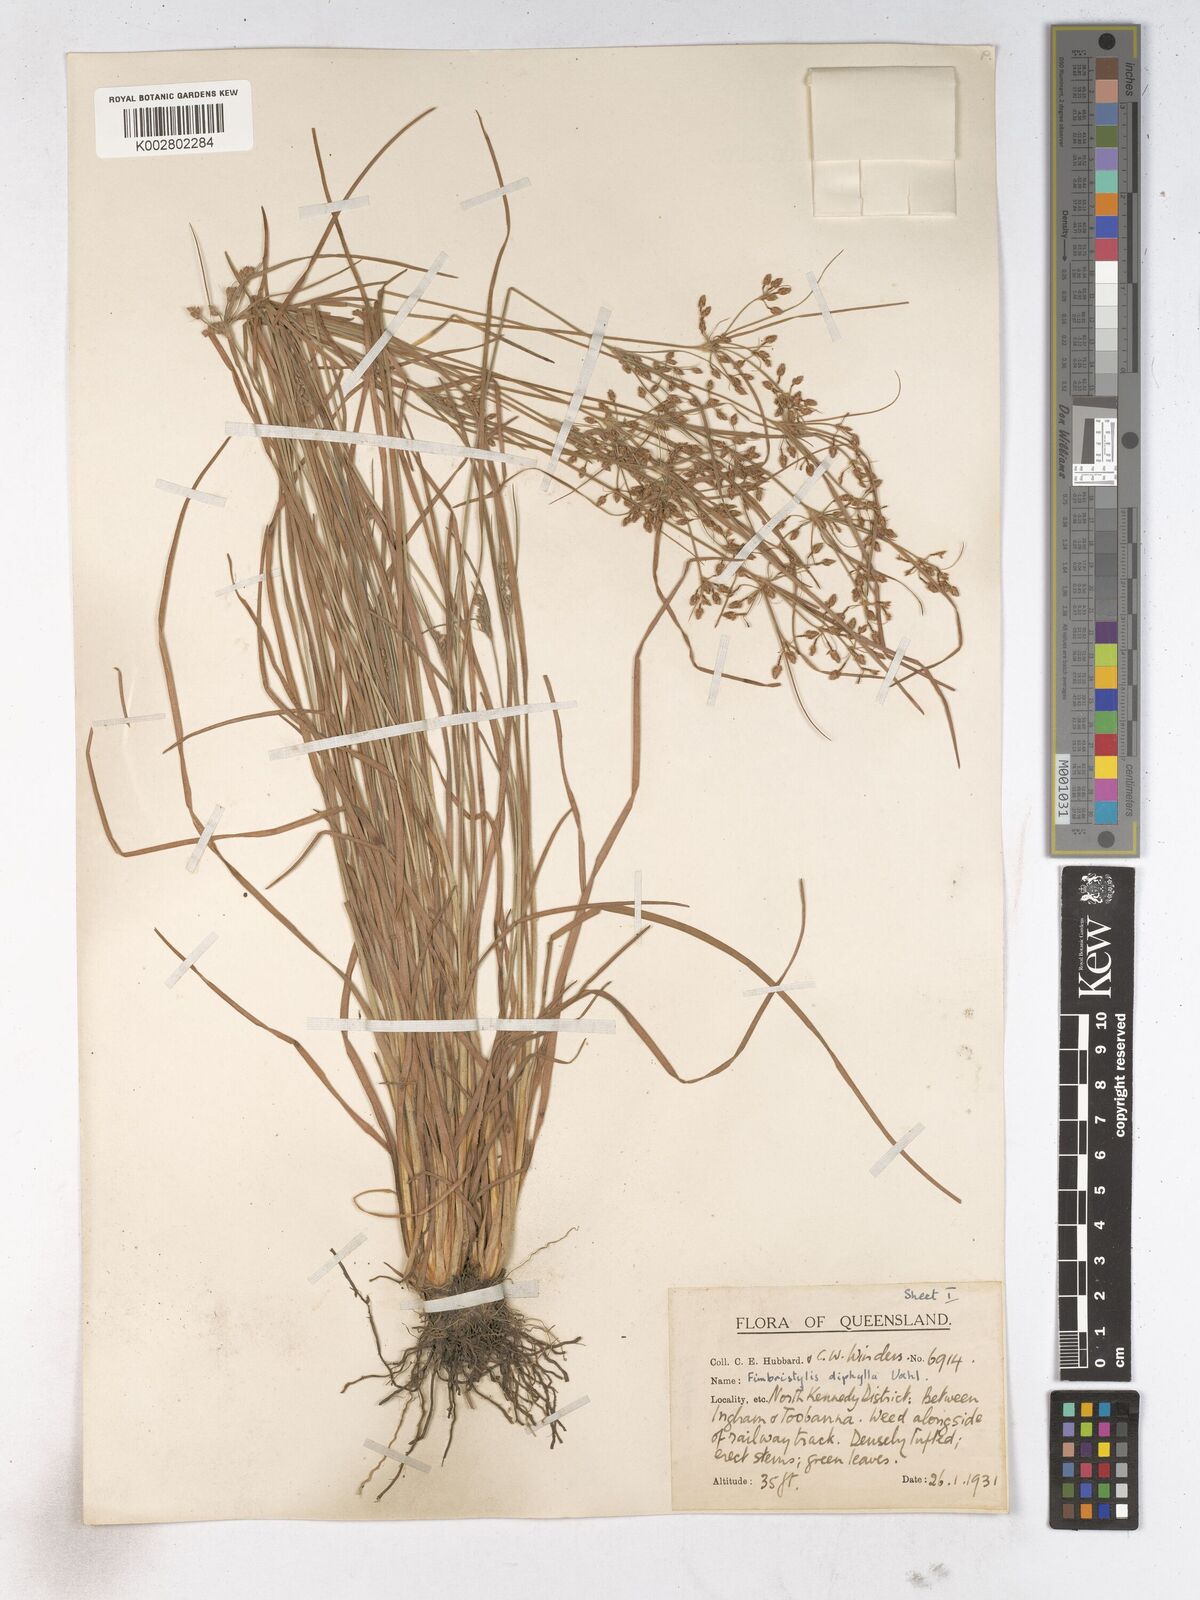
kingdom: Plantae
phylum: Tracheophyta
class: Liliopsida
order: Poales
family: Cyperaceae
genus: Fimbristylis
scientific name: Fimbristylis dichotoma
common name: Forked fimbry
